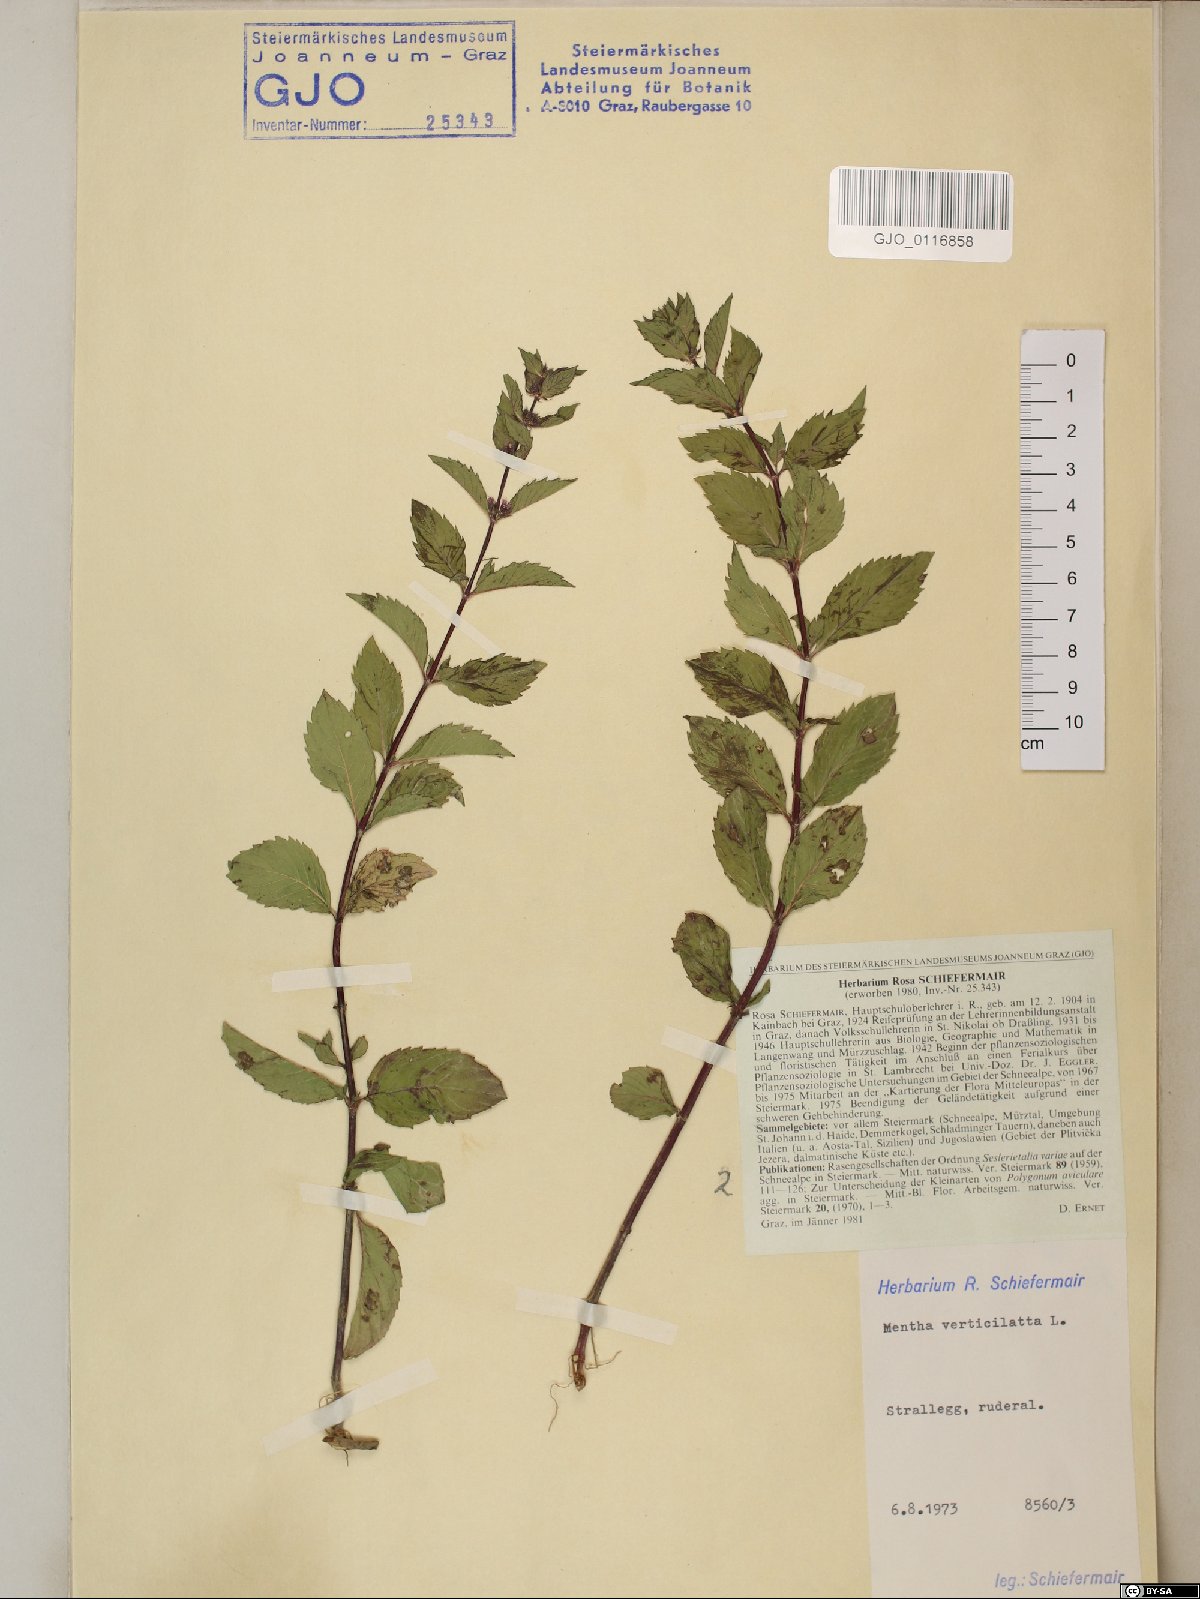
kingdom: Plantae
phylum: Tracheophyta
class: Magnoliopsida
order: Lamiales
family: Lamiaceae
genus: Mentha
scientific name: Mentha verticillata
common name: Mint
